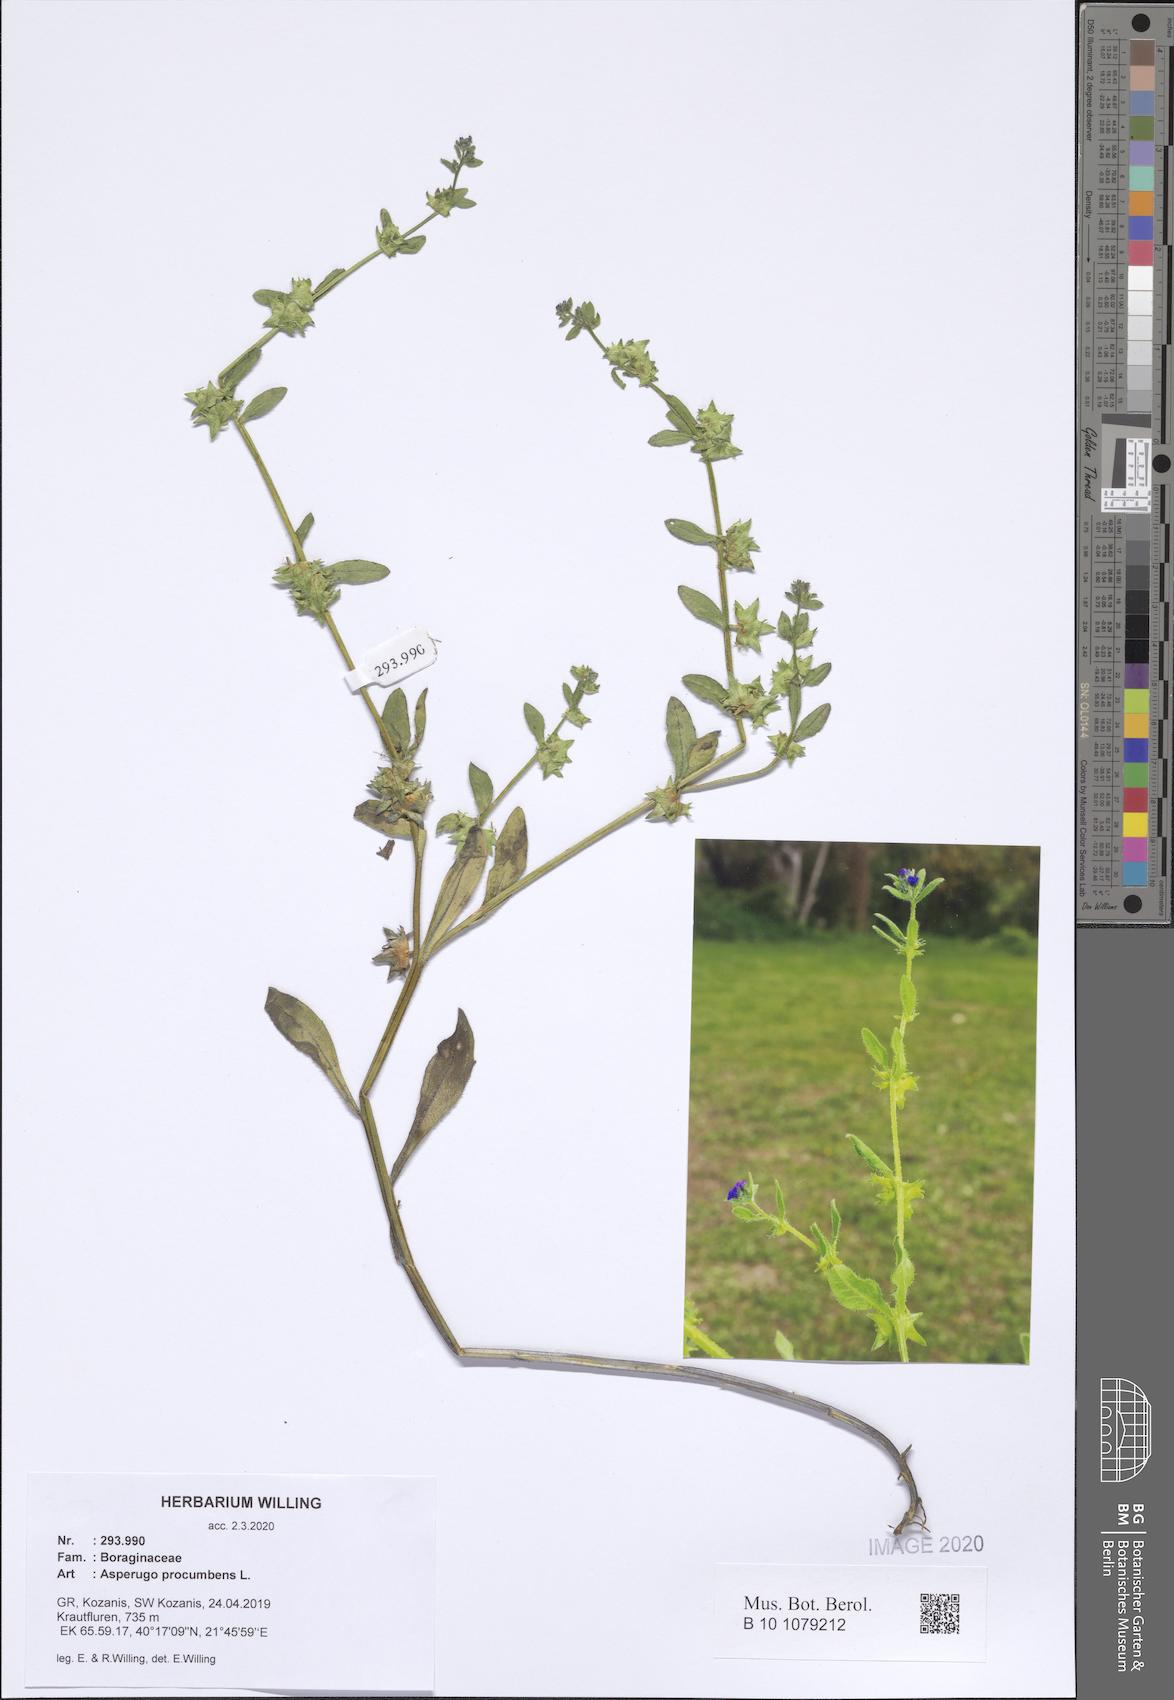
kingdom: Plantae
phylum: Tracheophyta
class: Magnoliopsida
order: Boraginales
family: Boraginaceae
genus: Asperugo
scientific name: Asperugo procumbens
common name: Madwort
